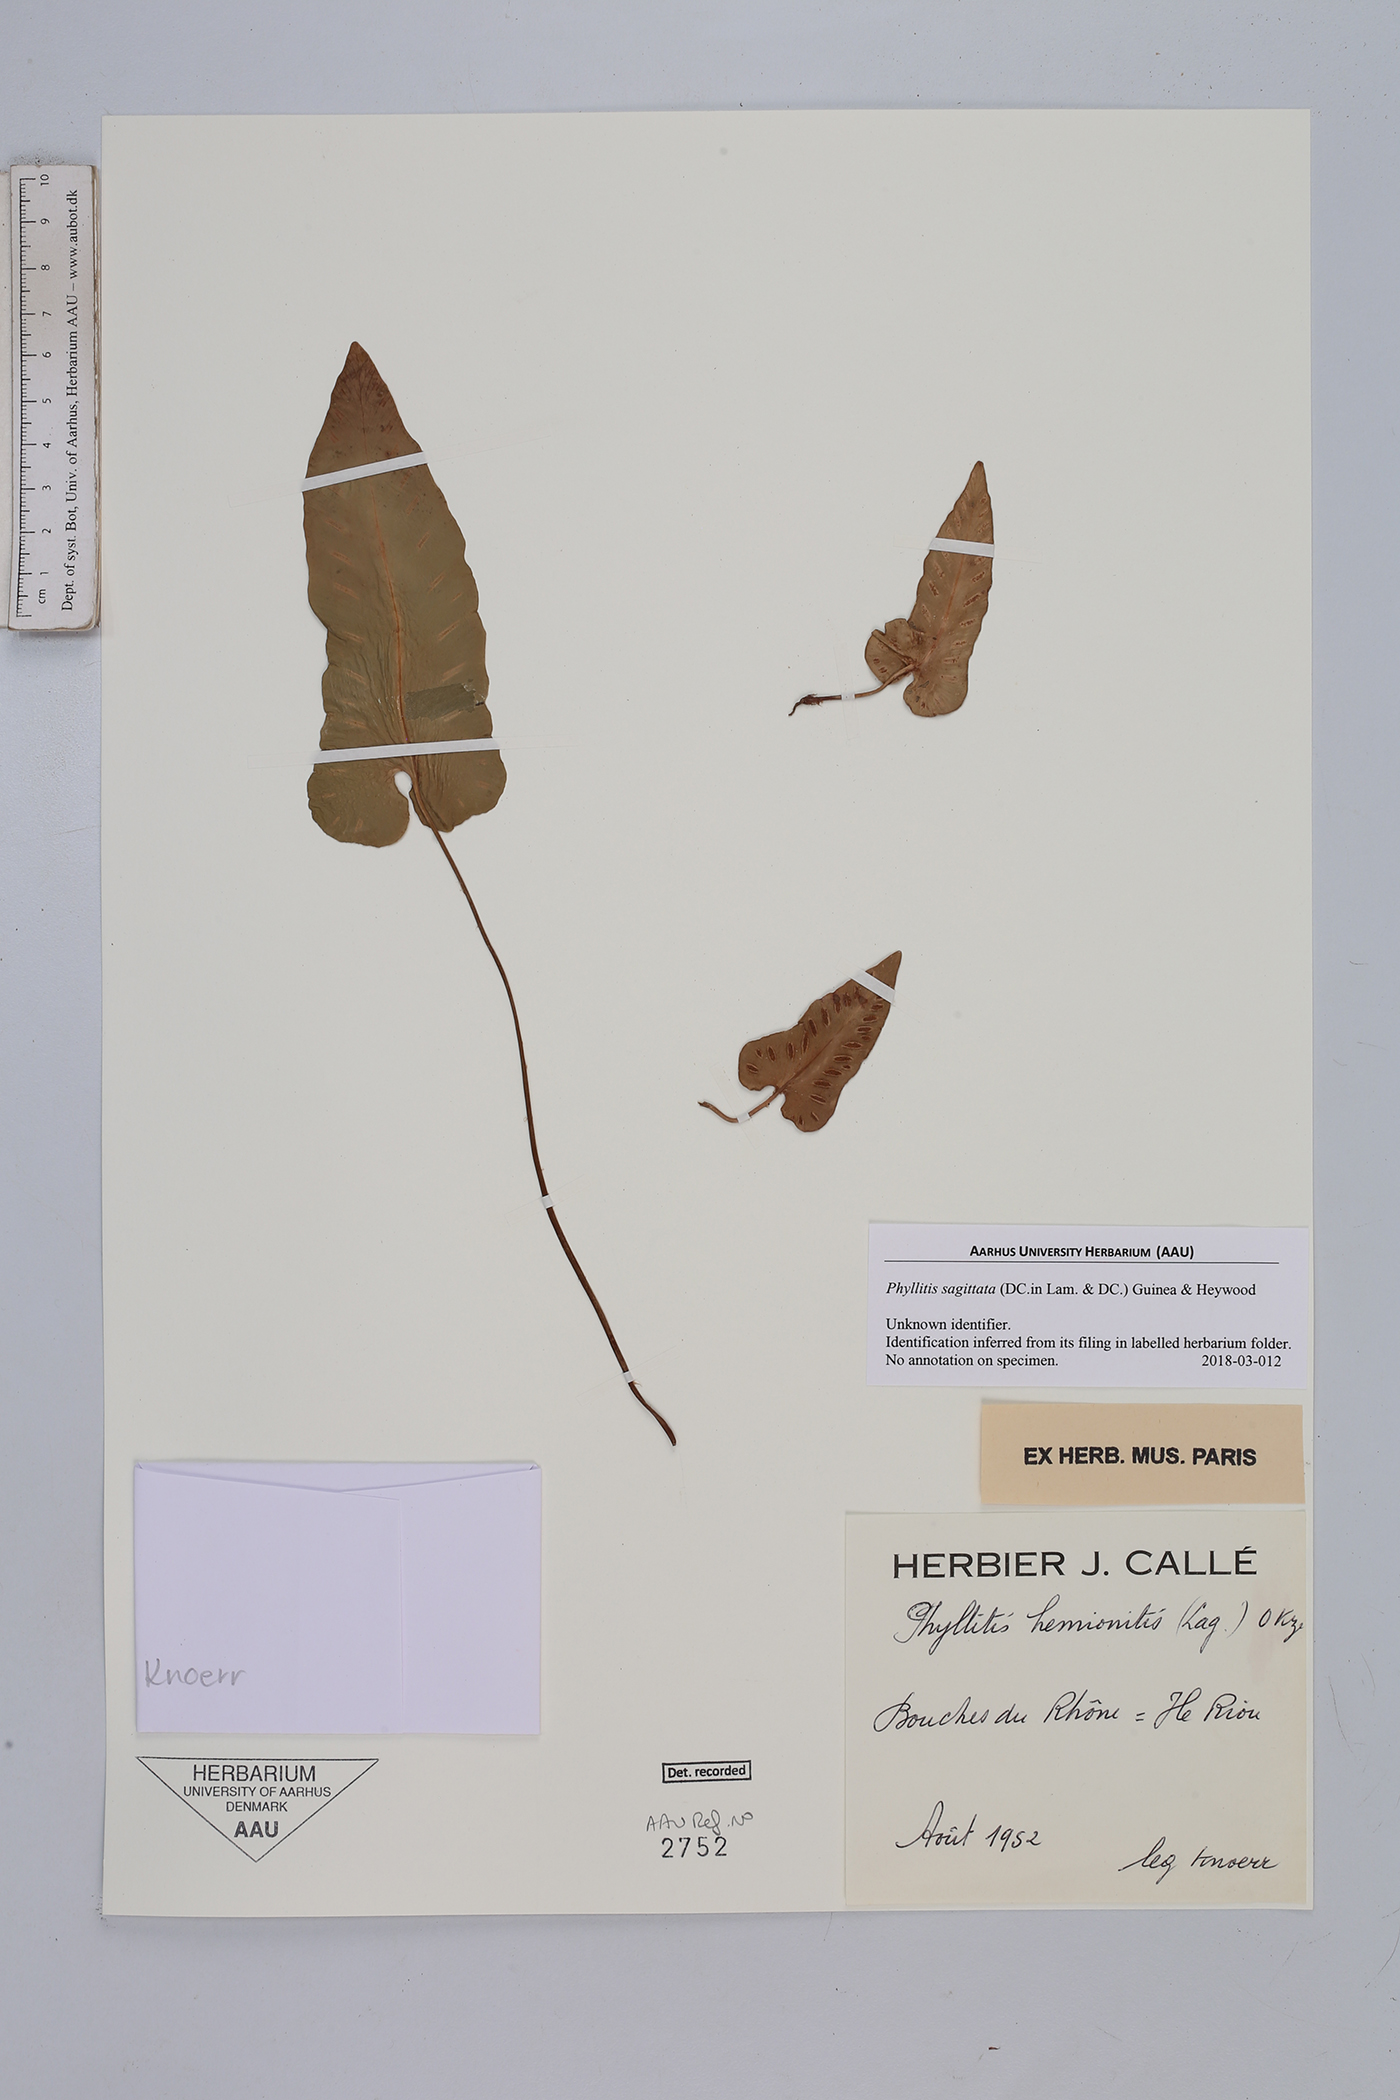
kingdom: Plantae
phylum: Tracheophyta
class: Polypodiopsida
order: Polypodiales
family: Aspleniaceae
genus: Asplenium
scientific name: Asplenium sagittatum
